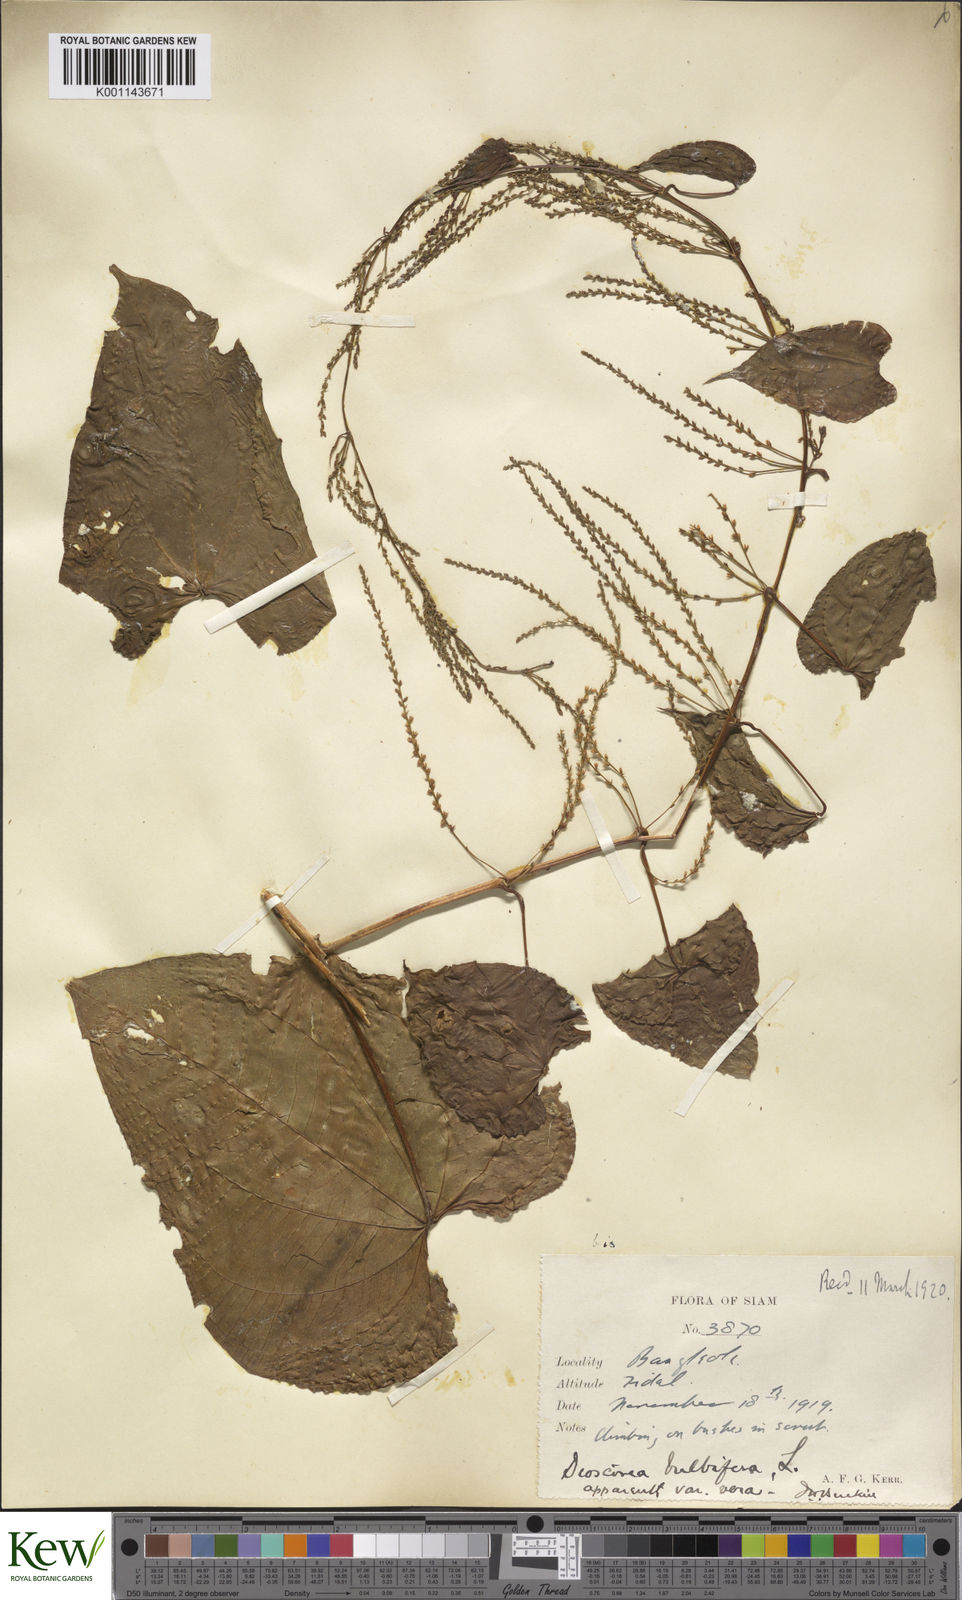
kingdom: Plantae
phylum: Tracheophyta
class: Liliopsida
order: Dioscoreales
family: Dioscoreaceae
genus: Dioscorea
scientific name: Dioscorea bulbifera
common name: Air yam
